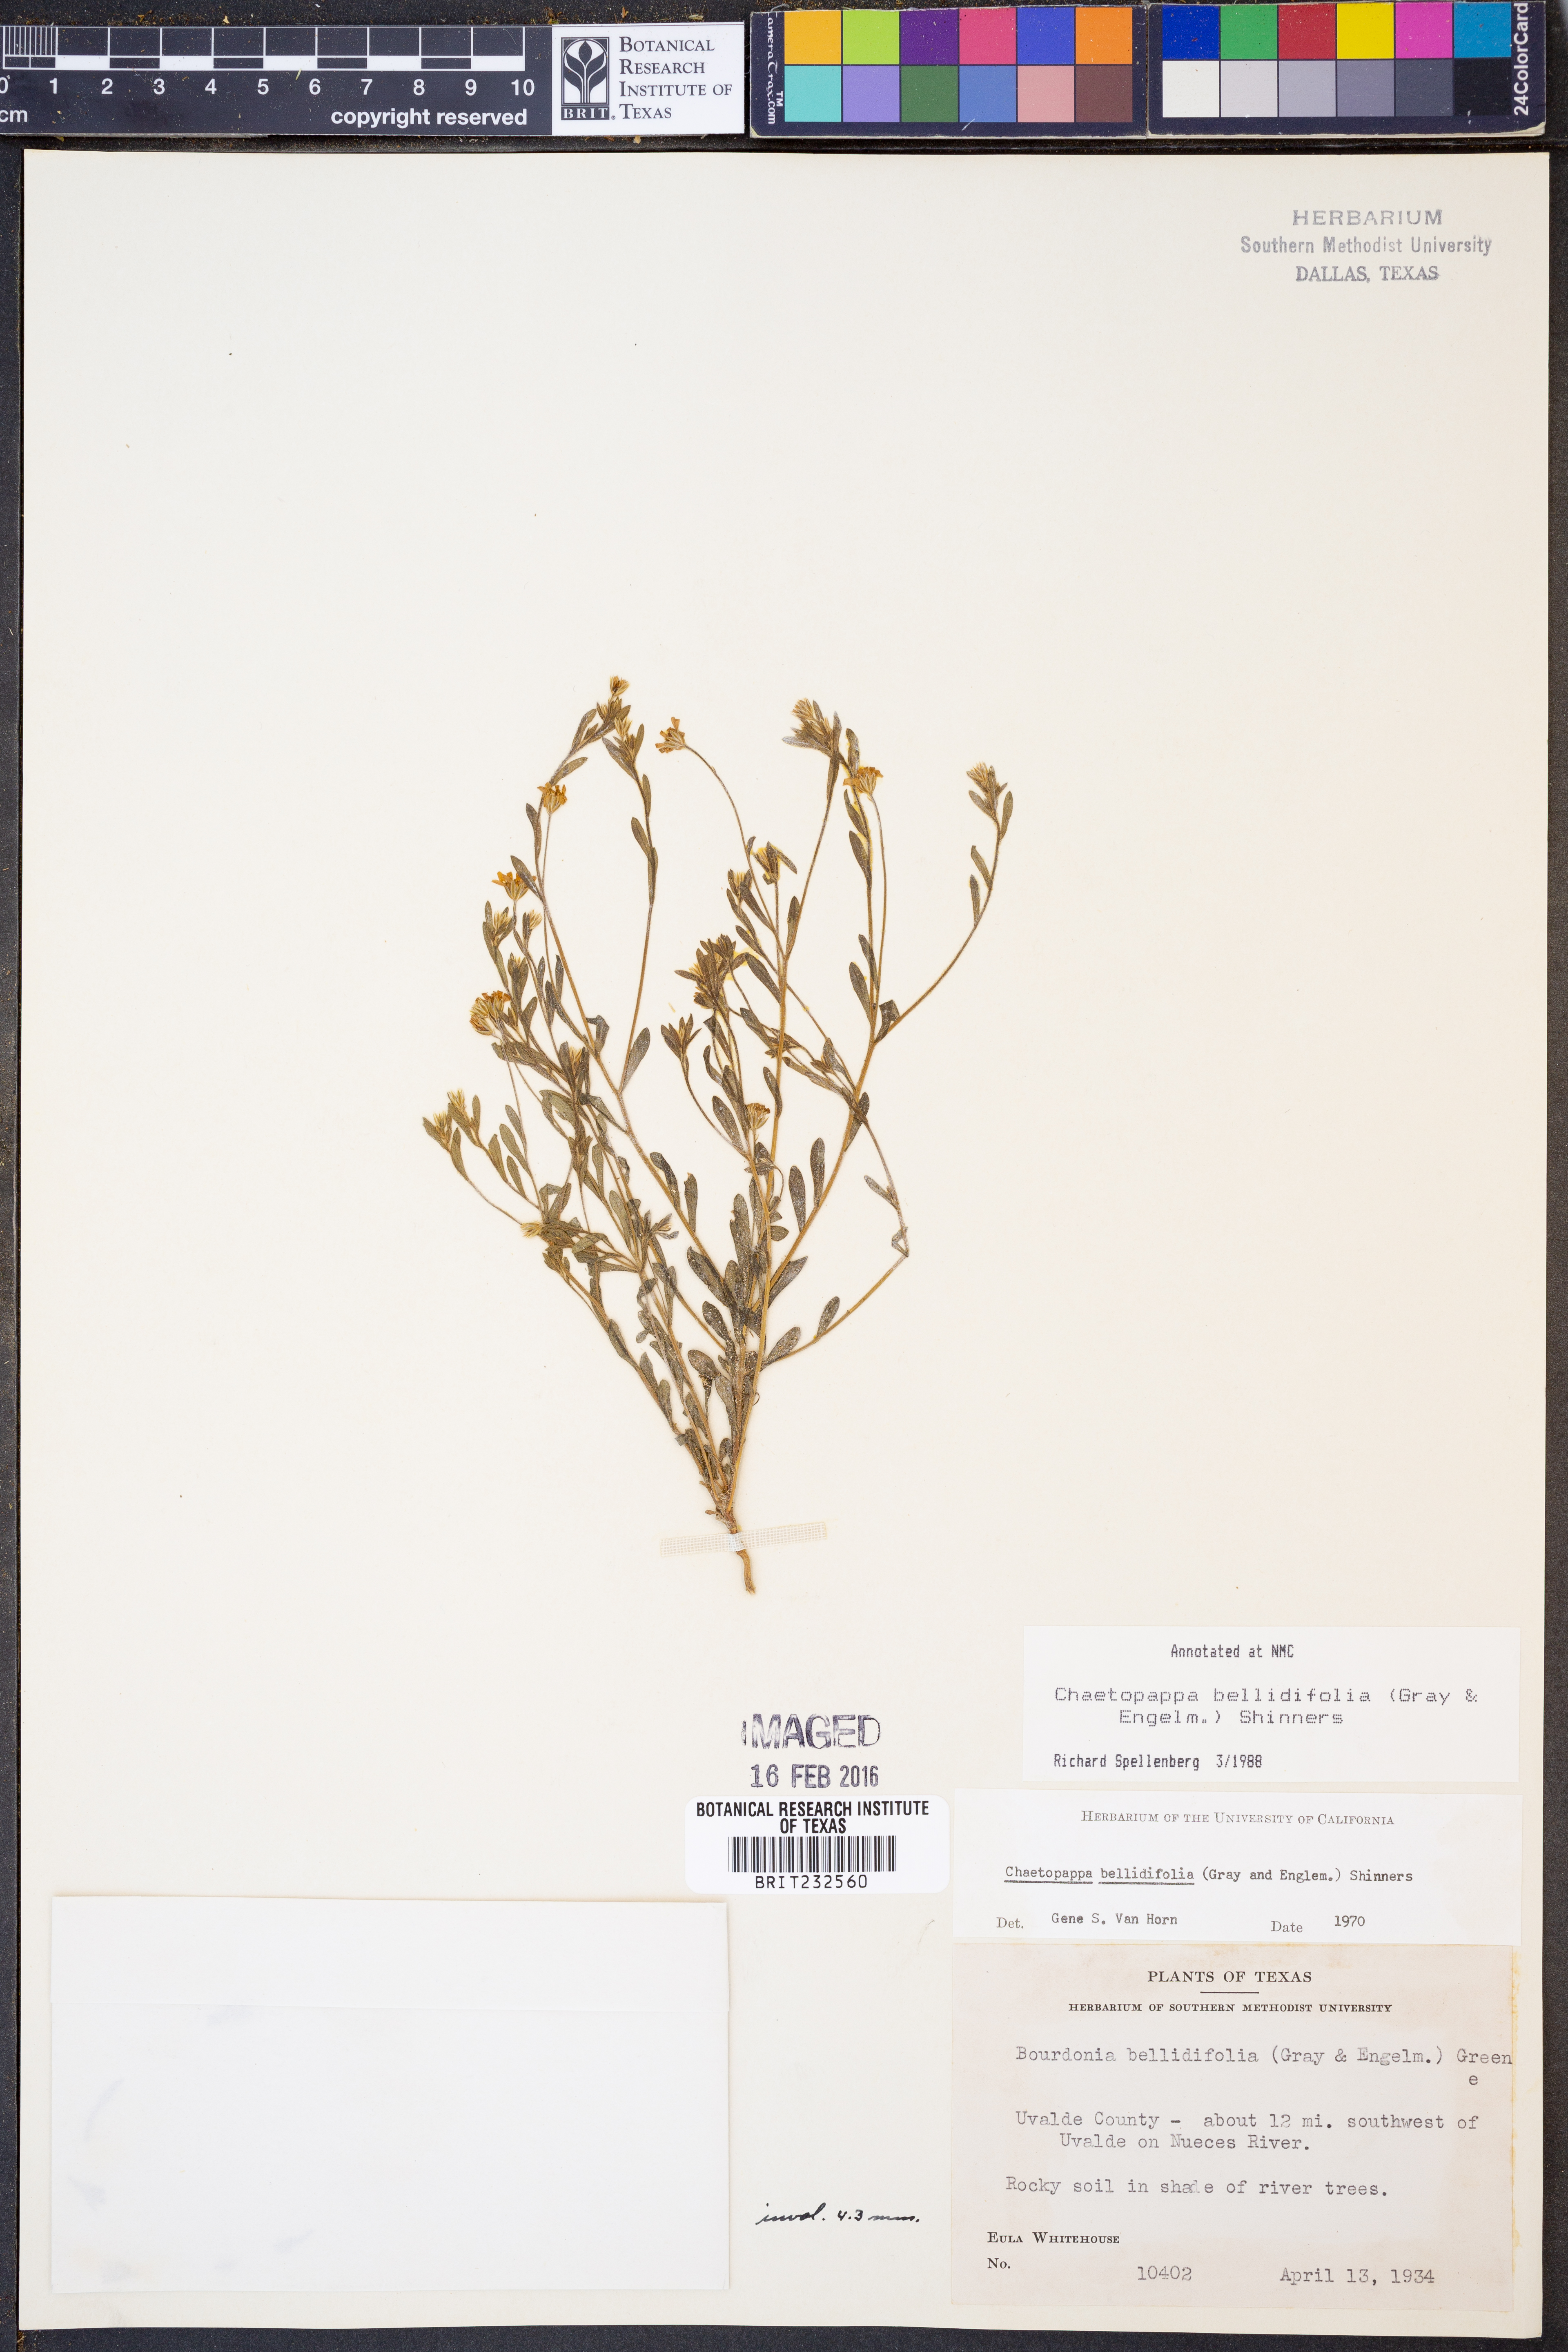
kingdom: Plantae
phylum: Tracheophyta
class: Magnoliopsida
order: Asterales
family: Asteraceae
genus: Chaetopappa
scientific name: Chaetopappa bellidifolia
